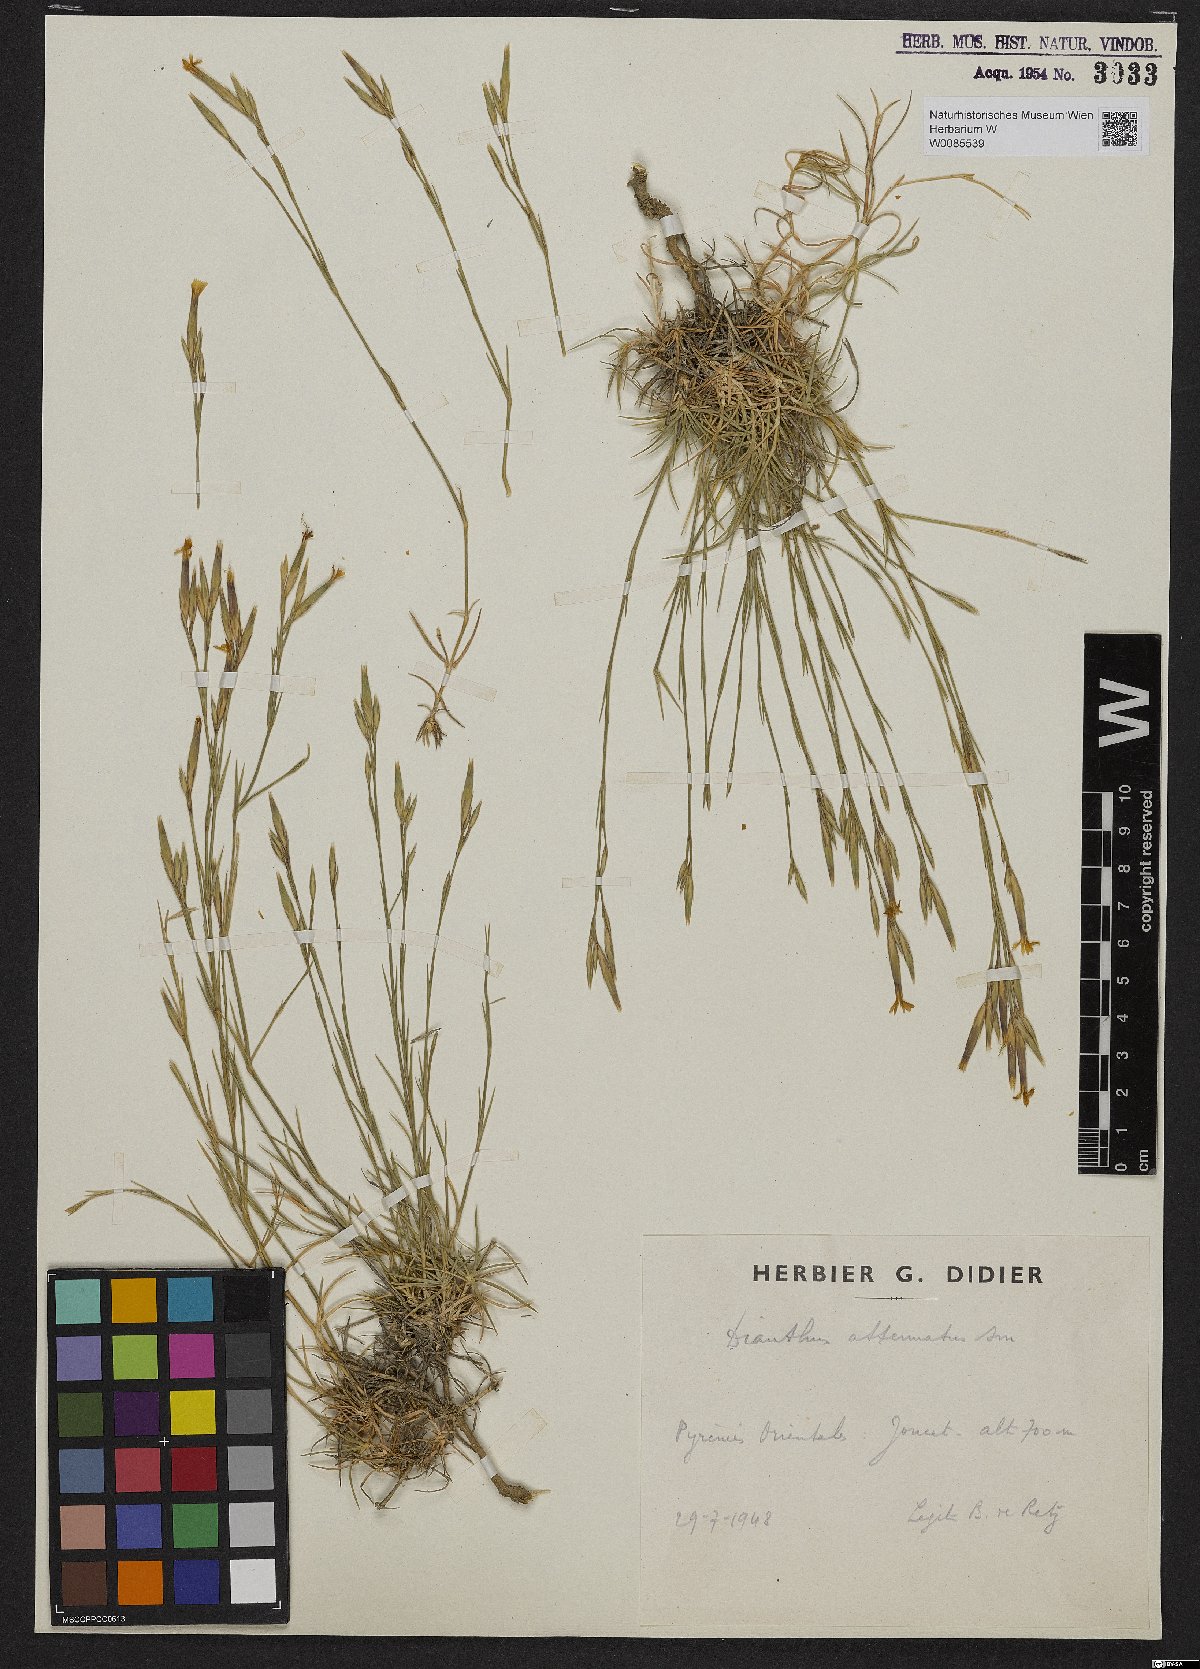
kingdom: Plantae
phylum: Tracheophyta
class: Magnoliopsida
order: Caryophyllales
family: Caryophyllaceae
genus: Dianthus
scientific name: Dianthus pyrenaicus
